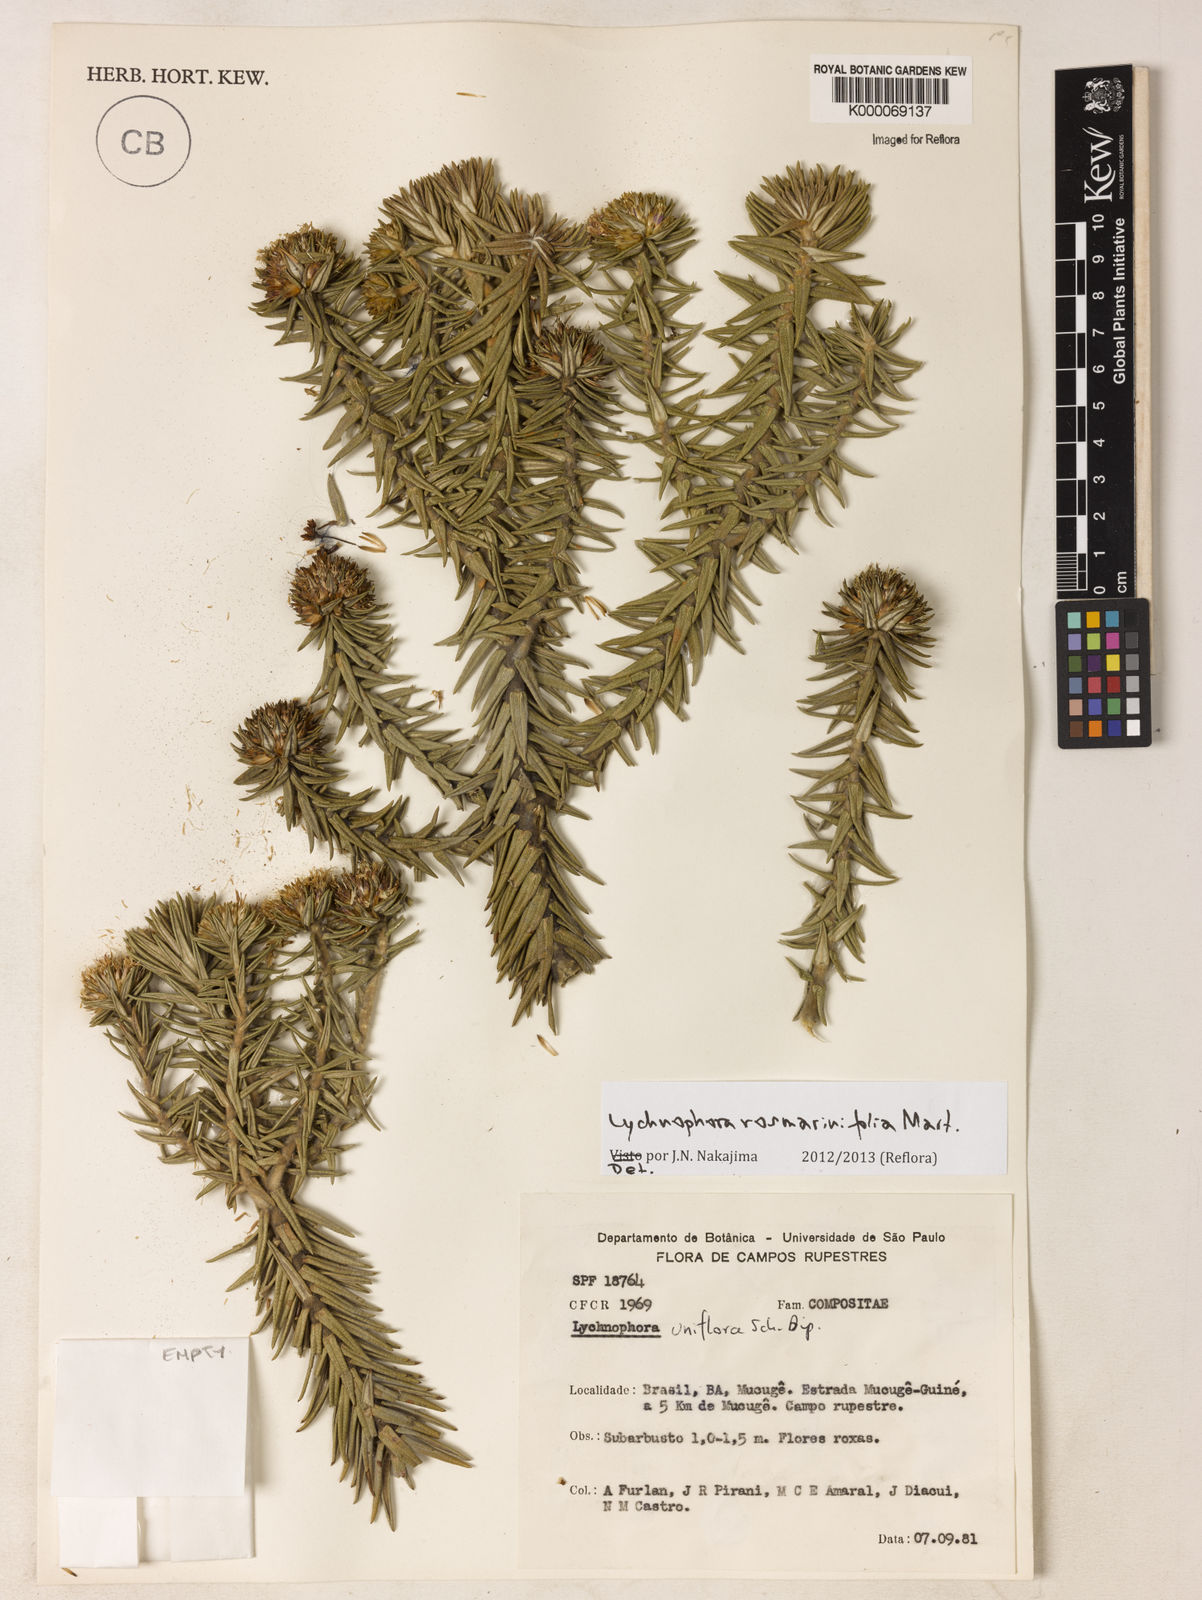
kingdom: Plantae
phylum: Tracheophyta
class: Magnoliopsida
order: Asterales
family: Asteraceae
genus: Lychnophora
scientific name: Lychnophora uniflora
